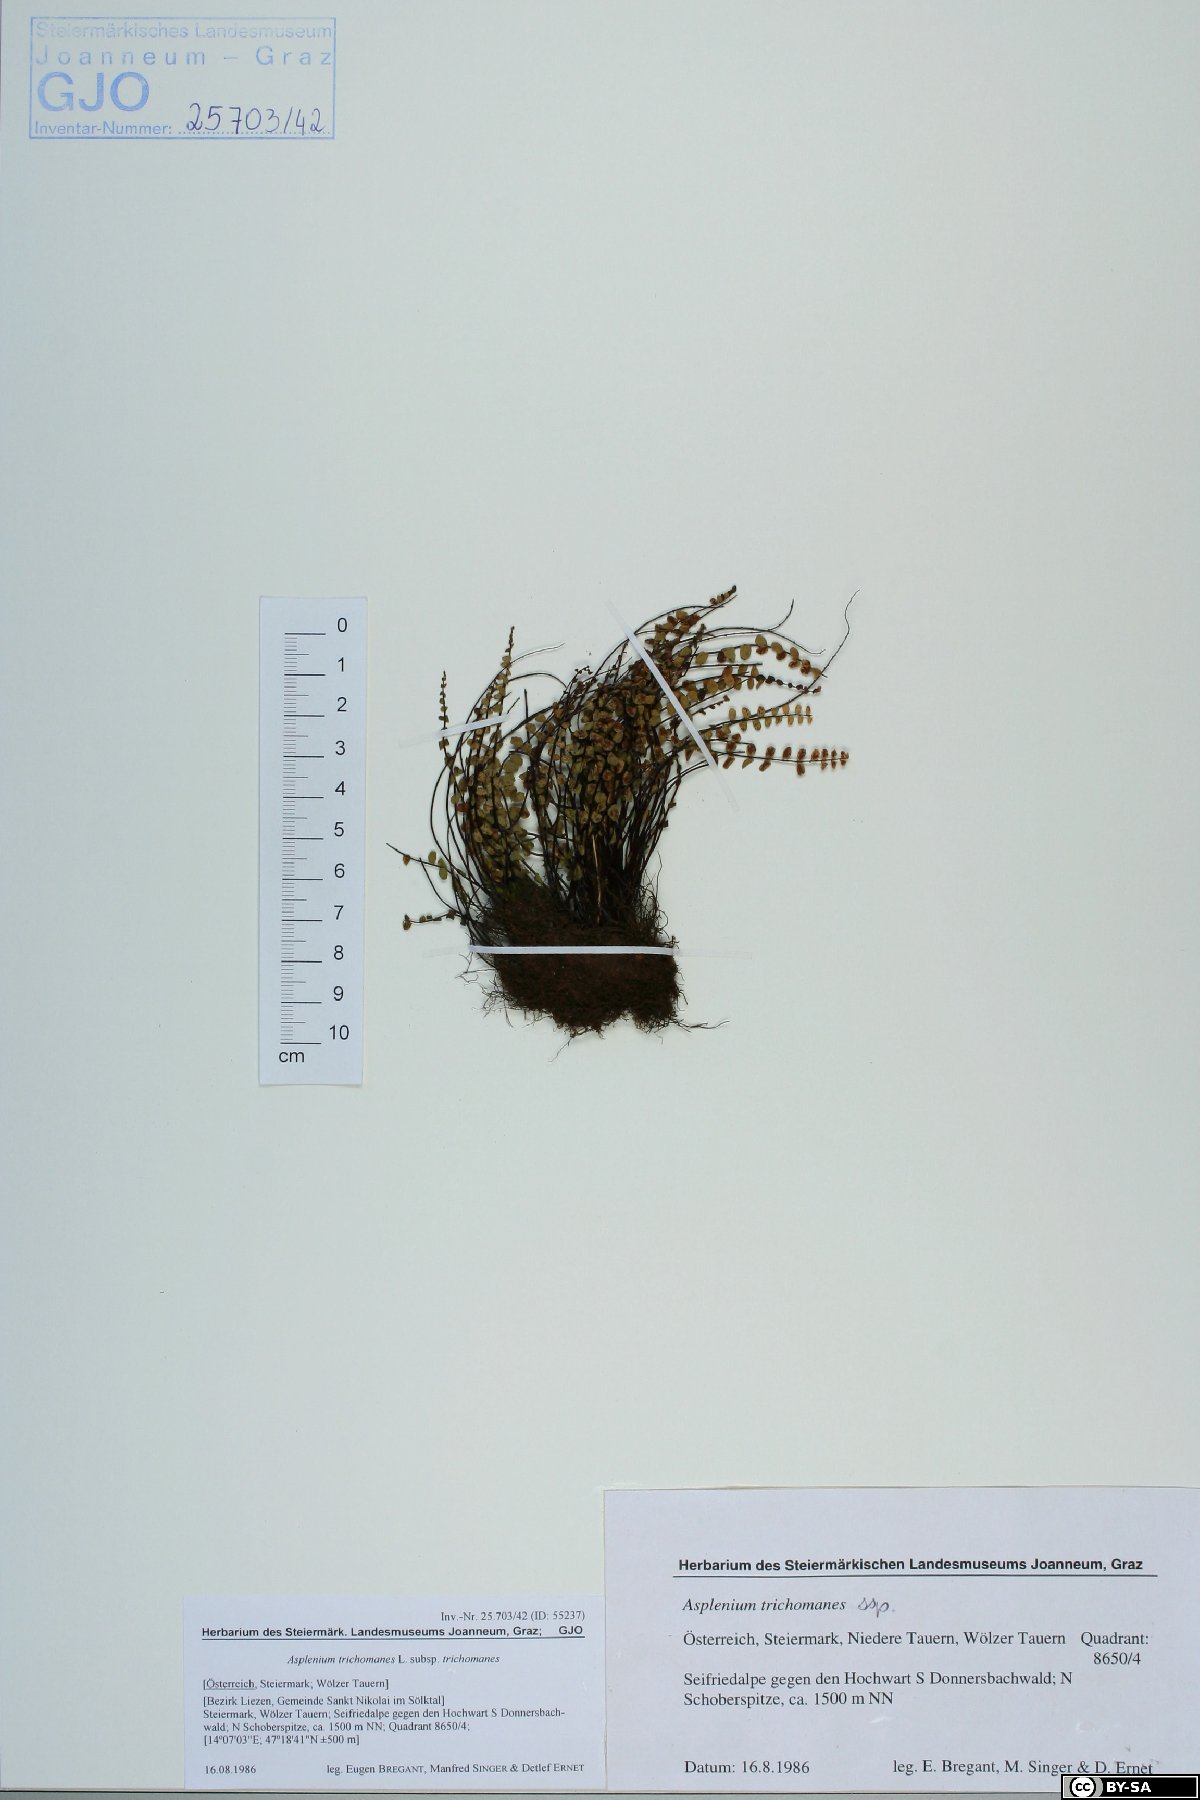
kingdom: Plantae
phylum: Tracheophyta
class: Polypodiopsida
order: Polypodiales
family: Aspleniaceae
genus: Asplenium
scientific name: Asplenium trichomanes
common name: Maidenhair spleenwort
